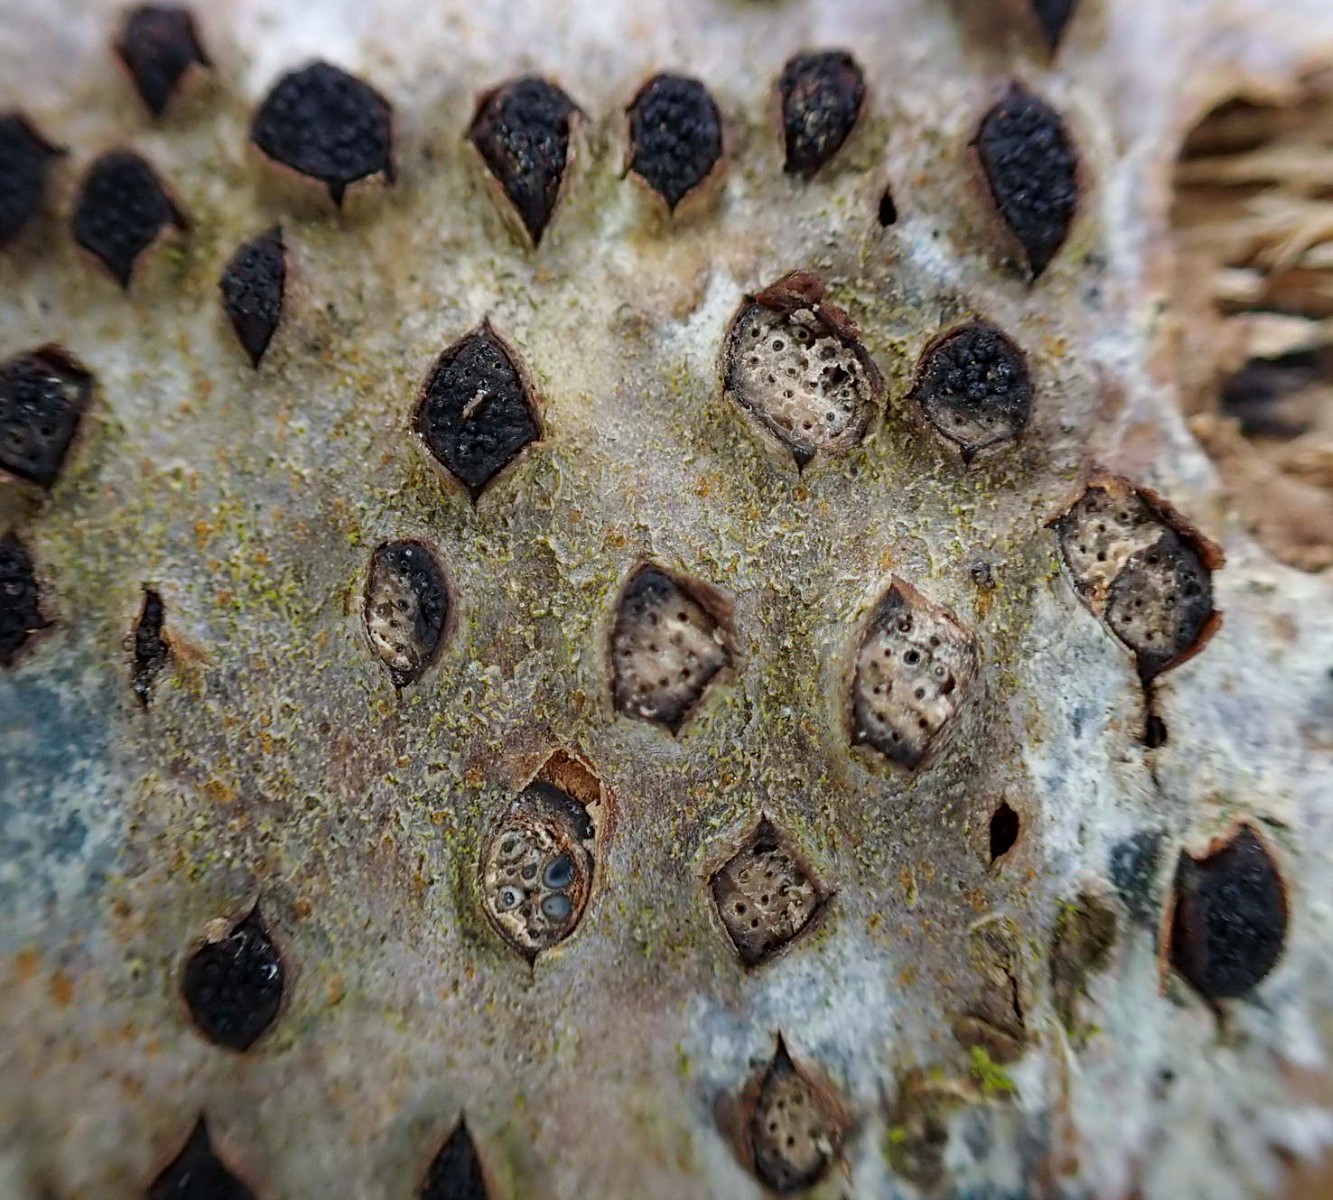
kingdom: Fungi
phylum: Ascomycota
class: Sordariomycetes
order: Xylariales
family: Diatrypaceae
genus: Diatrypella
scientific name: Diatrypella quercina
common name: ege-kulskorpe
